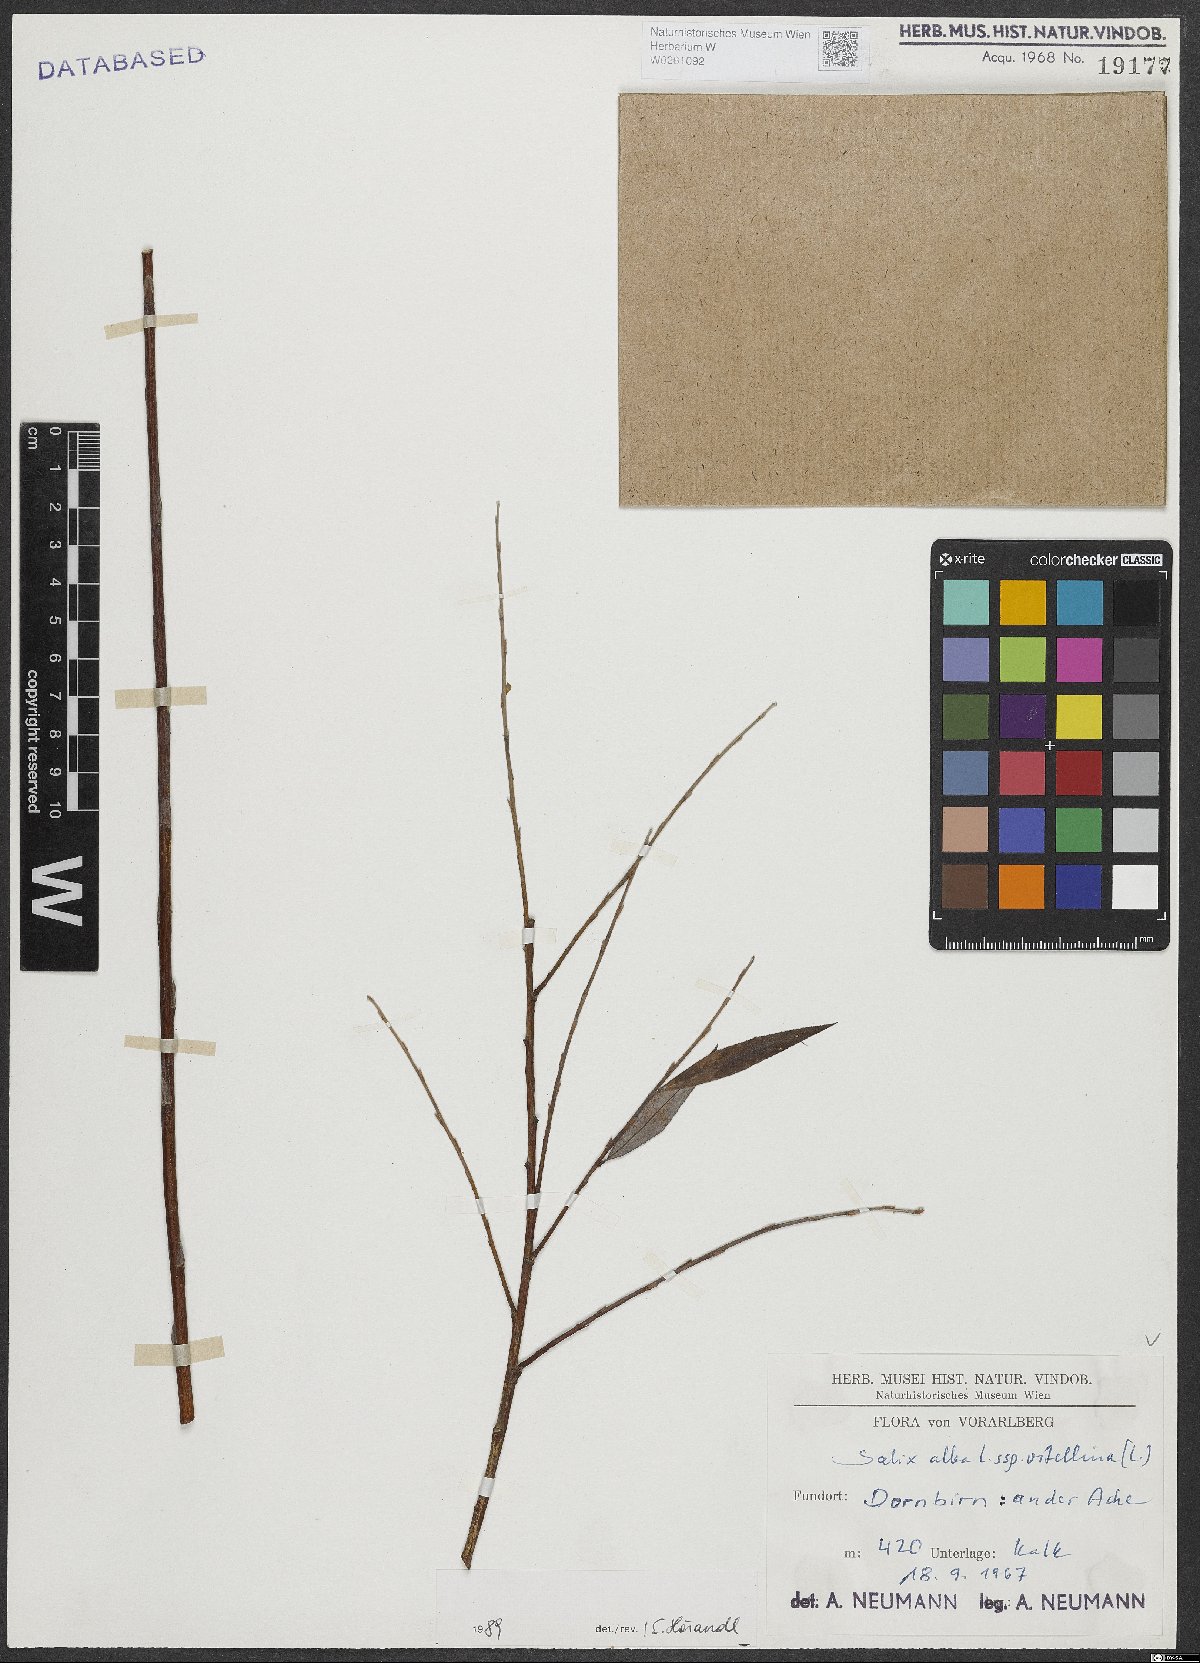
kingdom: Plantae
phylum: Tracheophyta
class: Magnoliopsida
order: Malpighiales
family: Salicaceae
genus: Salix
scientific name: Salix alba
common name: White willow
